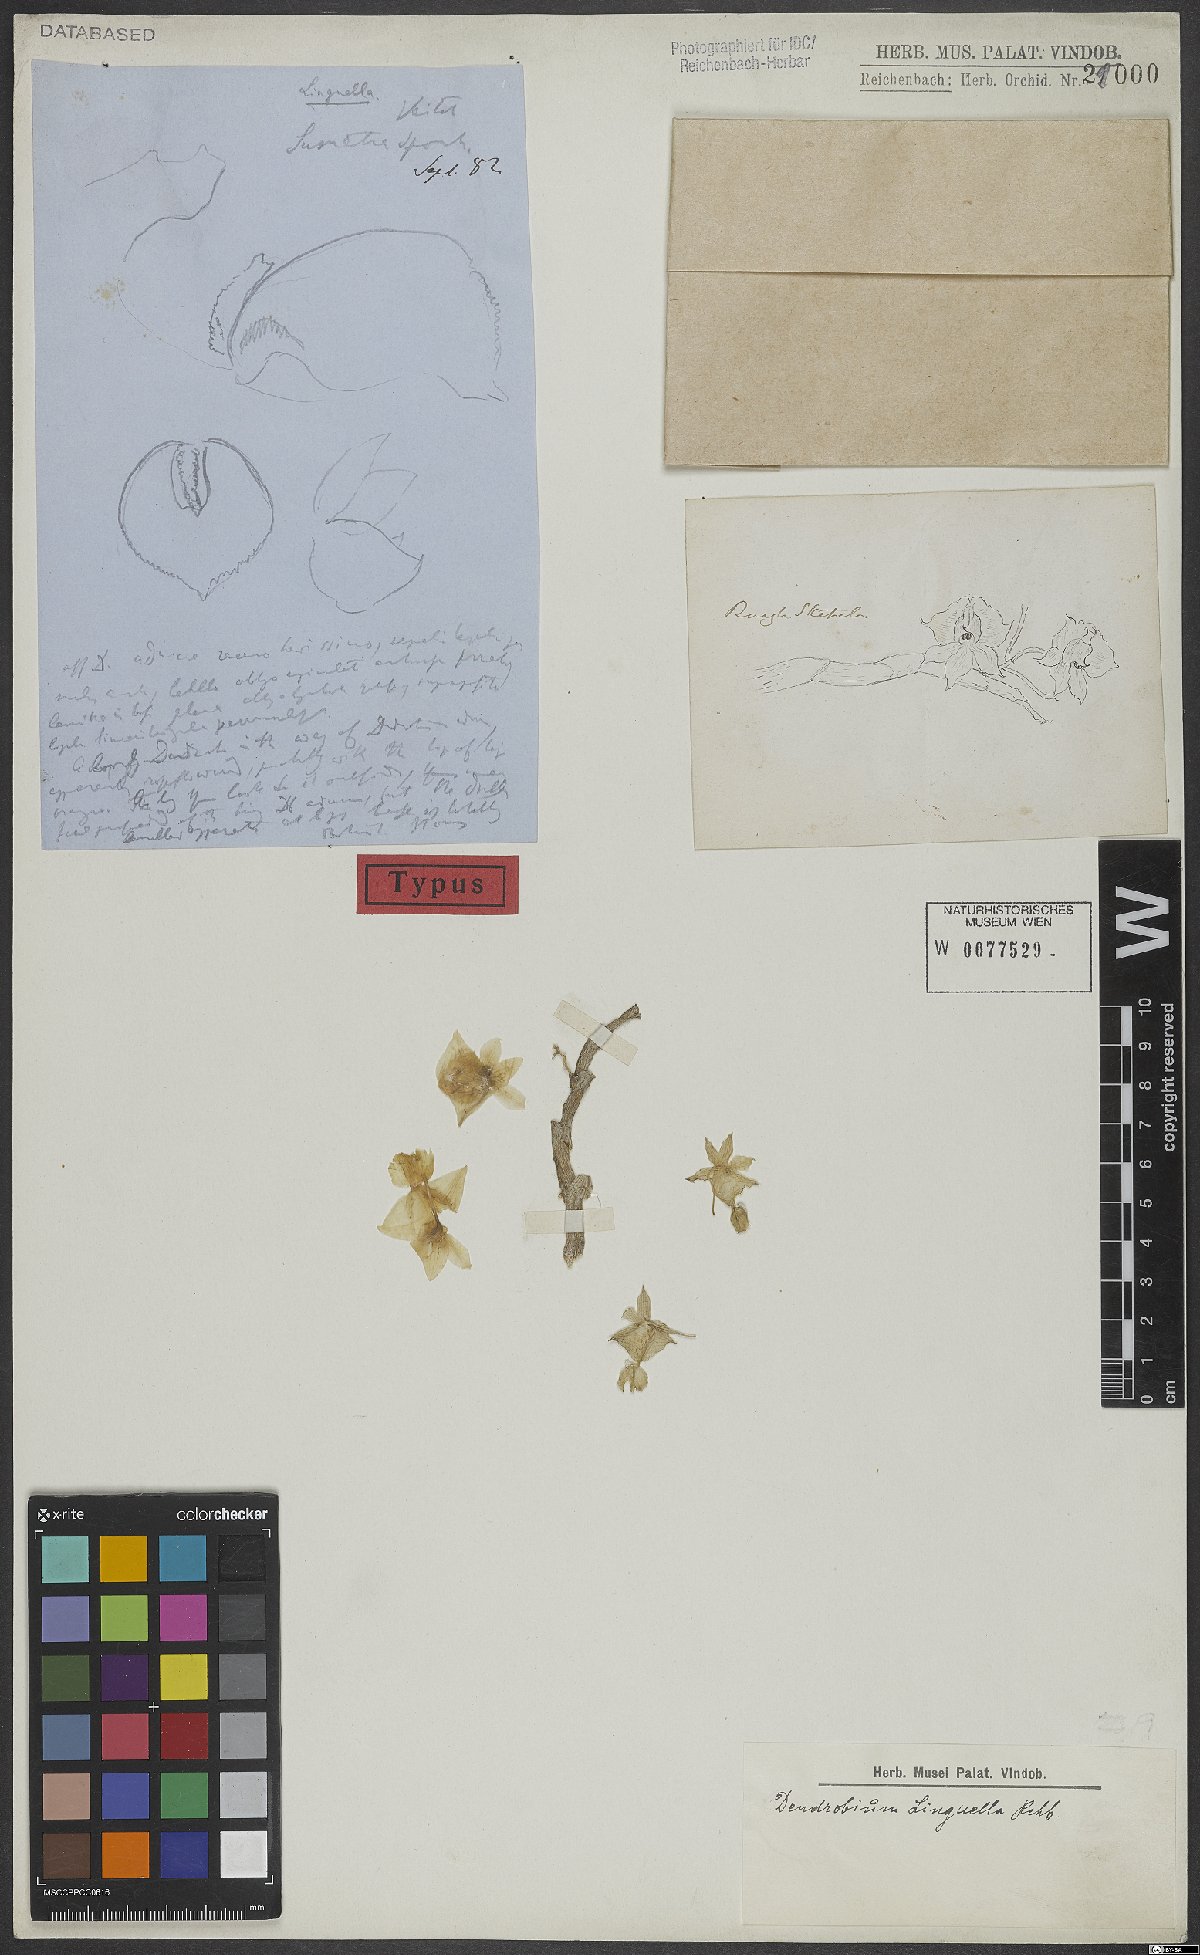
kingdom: Plantae
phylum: Tracheophyta
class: Liliopsida
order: Asparagales
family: Orchidaceae
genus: Dendrobium
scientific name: Dendrobium linguella
